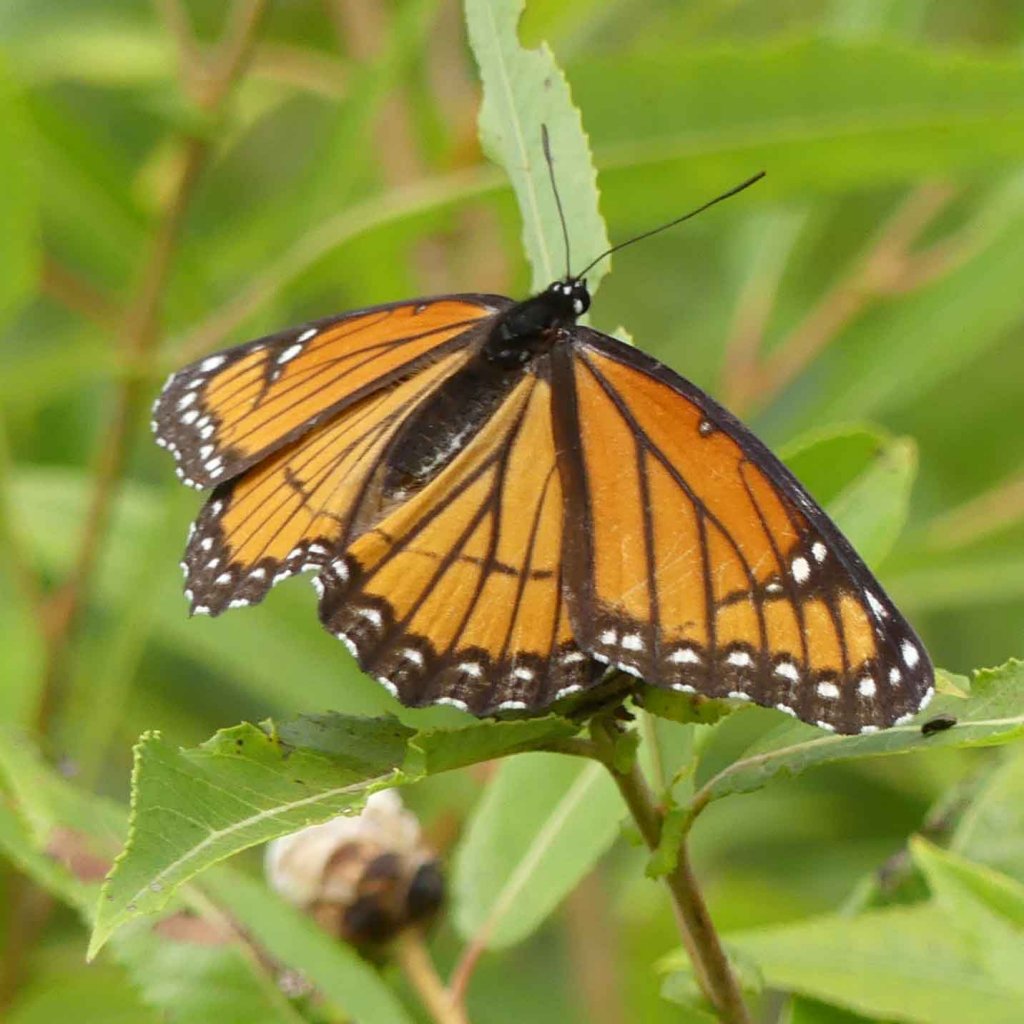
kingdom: Animalia
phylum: Arthropoda
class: Insecta
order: Lepidoptera
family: Nymphalidae
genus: Limenitis
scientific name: Limenitis archippus
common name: Viceroy
